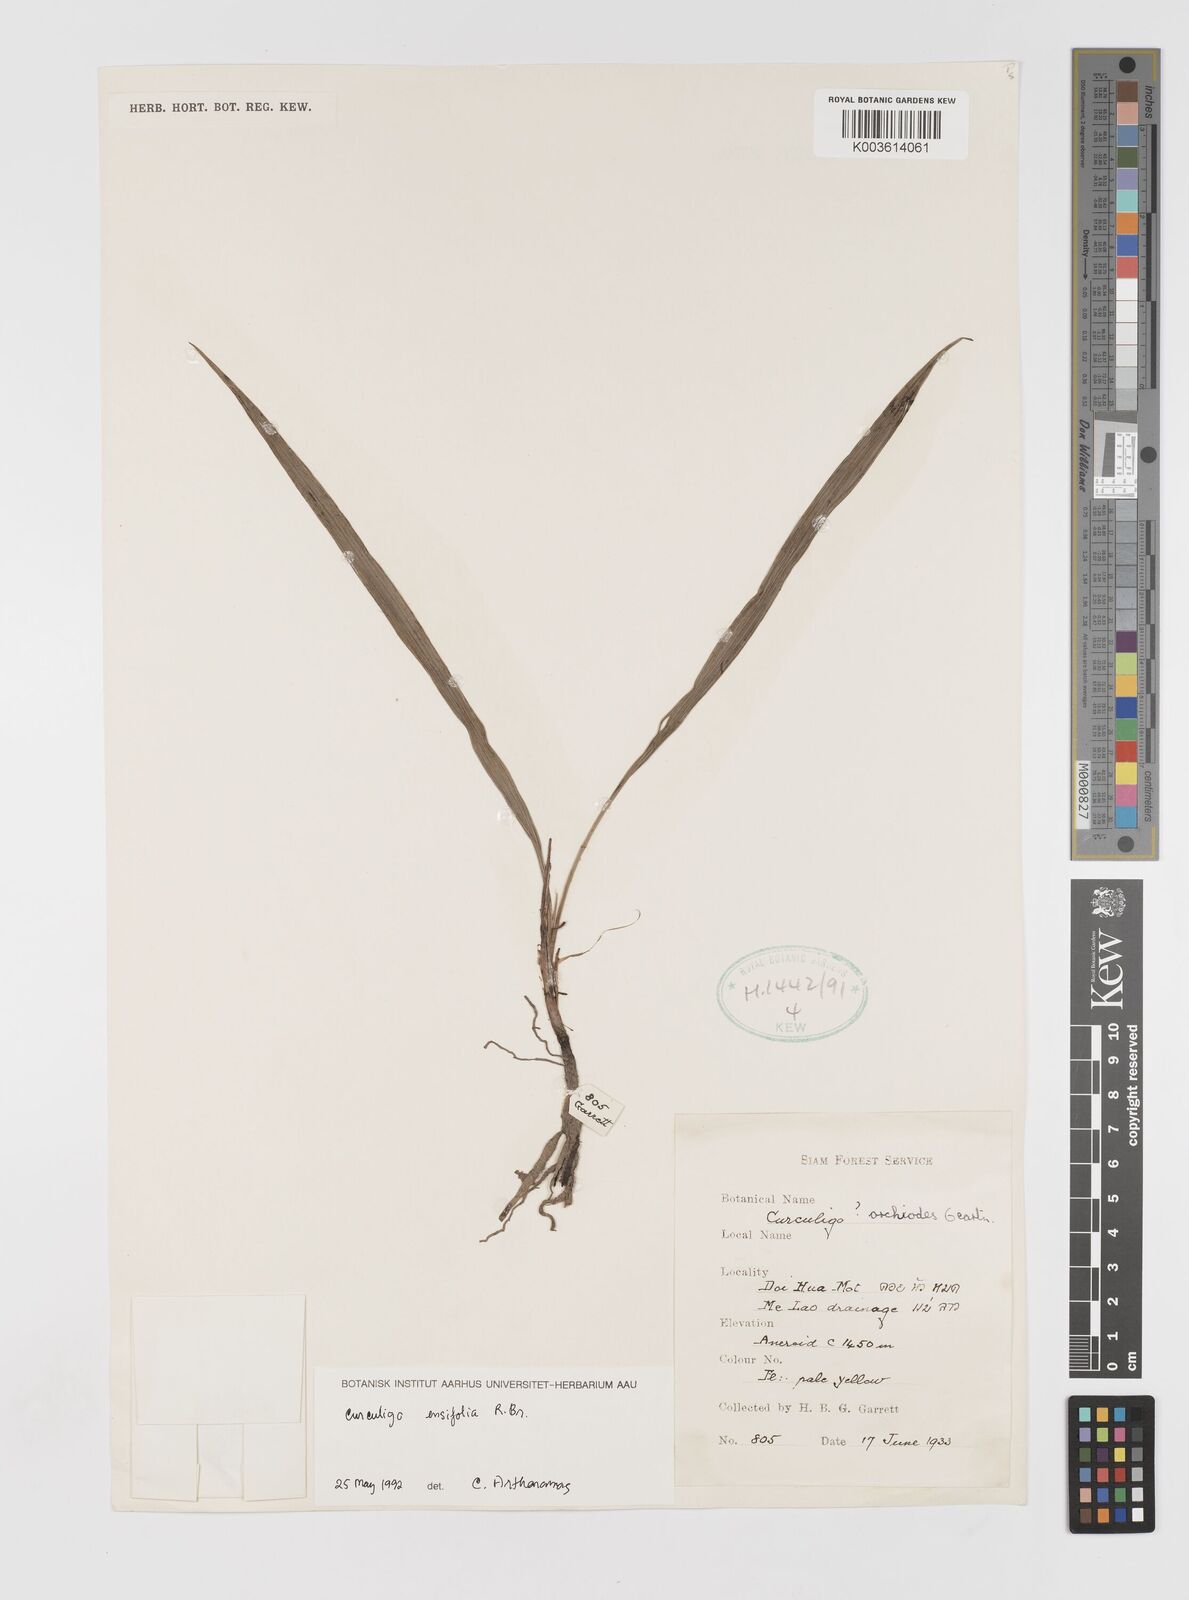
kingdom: Plantae
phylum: Tracheophyta
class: Liliopsida
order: Asparagales
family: Hypoxidaceae
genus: Curculigo
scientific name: Curculigo ensifolia
